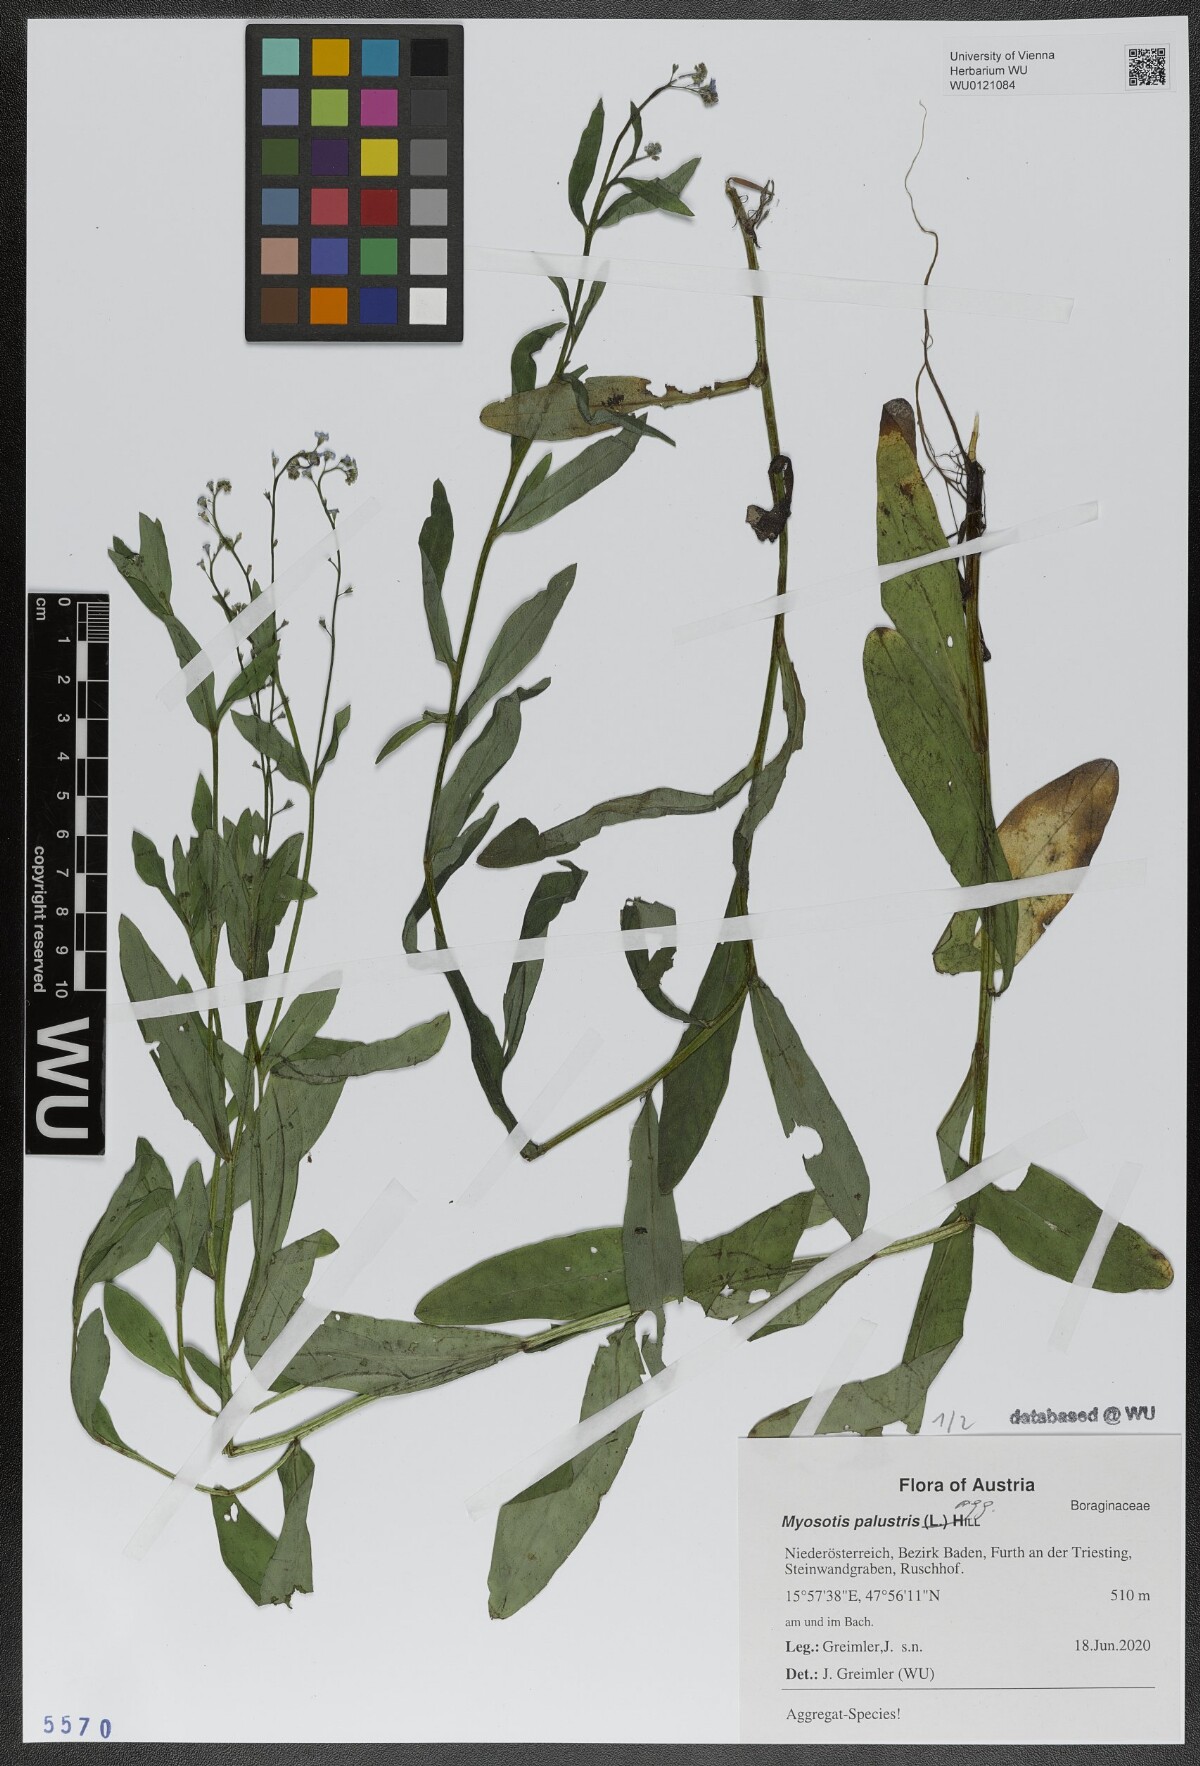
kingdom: Plantae
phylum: Tracheophyta
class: Magnoliopsida
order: Boraginales
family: Boraginaceae
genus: Myosotis
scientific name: Myosotis scorpioides
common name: Water forget-me-not
